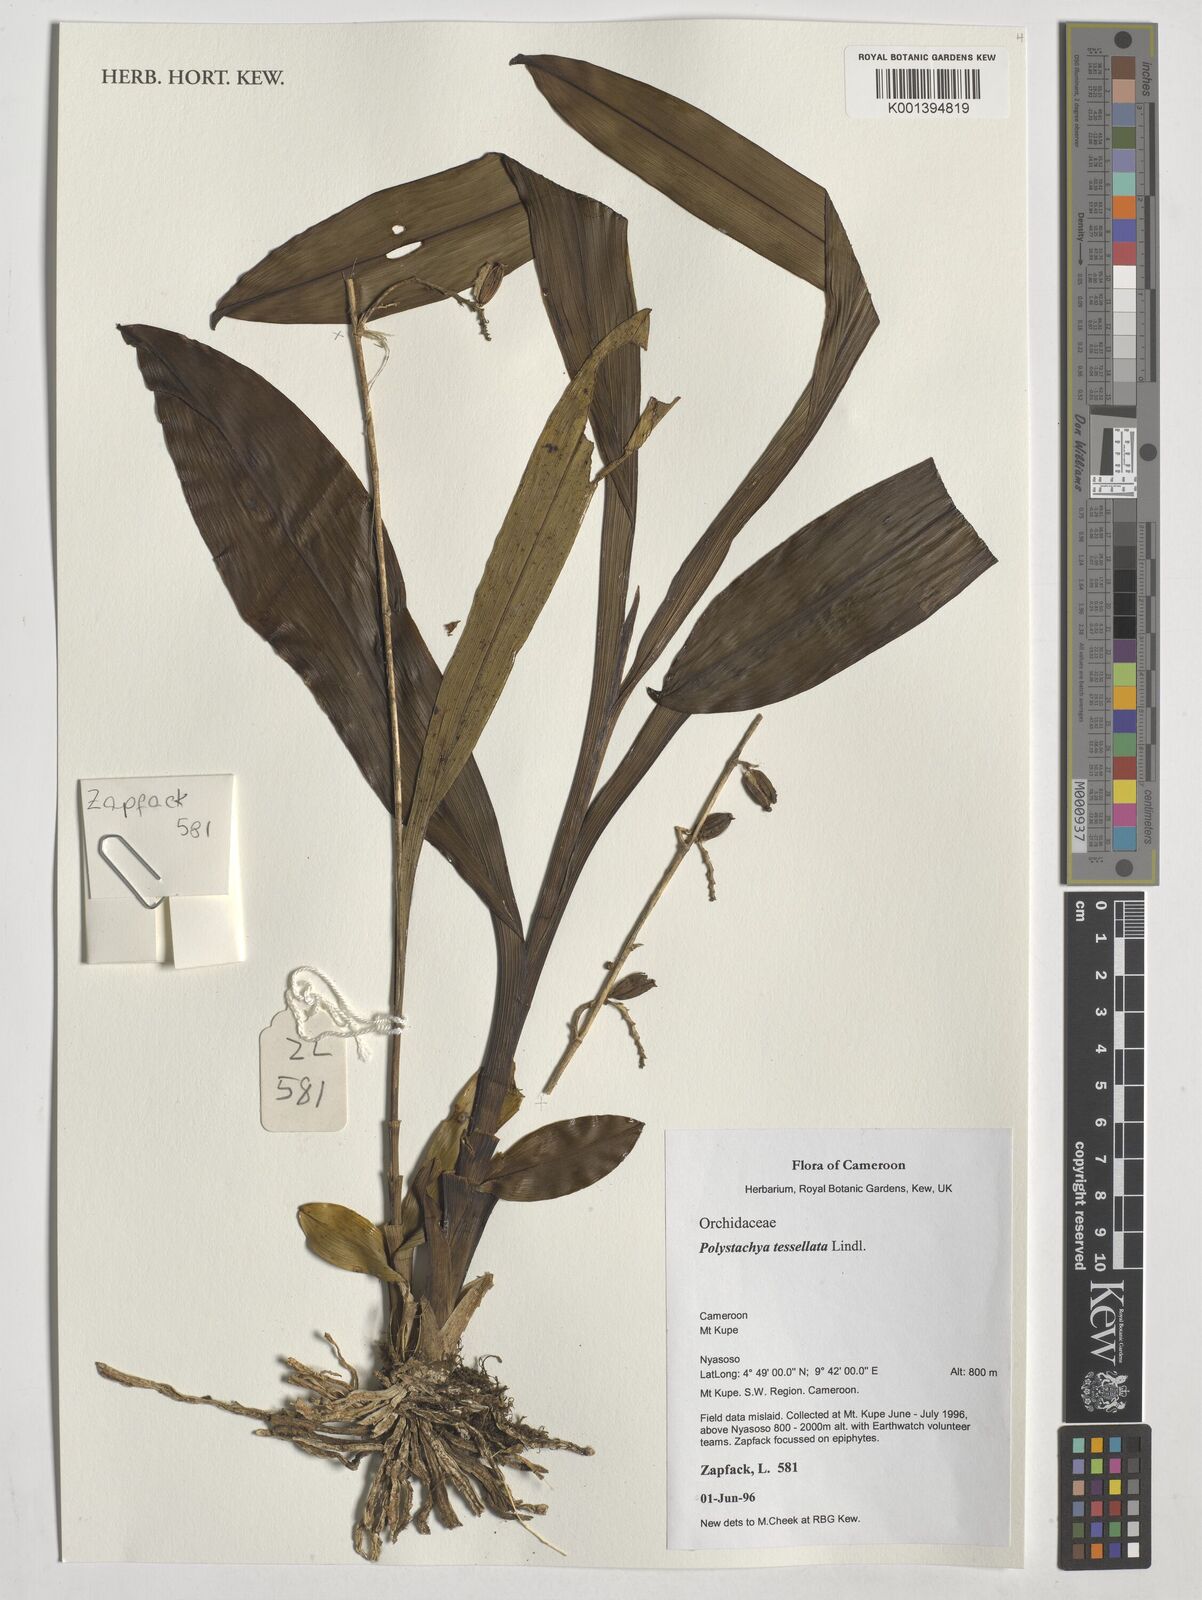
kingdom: Plantae
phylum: Tracheophyta
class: Liliopsida
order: Asparagales
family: Orchidaceae
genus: Polystachya
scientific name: Polystachya concreta
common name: Greater yellowspike orchid
